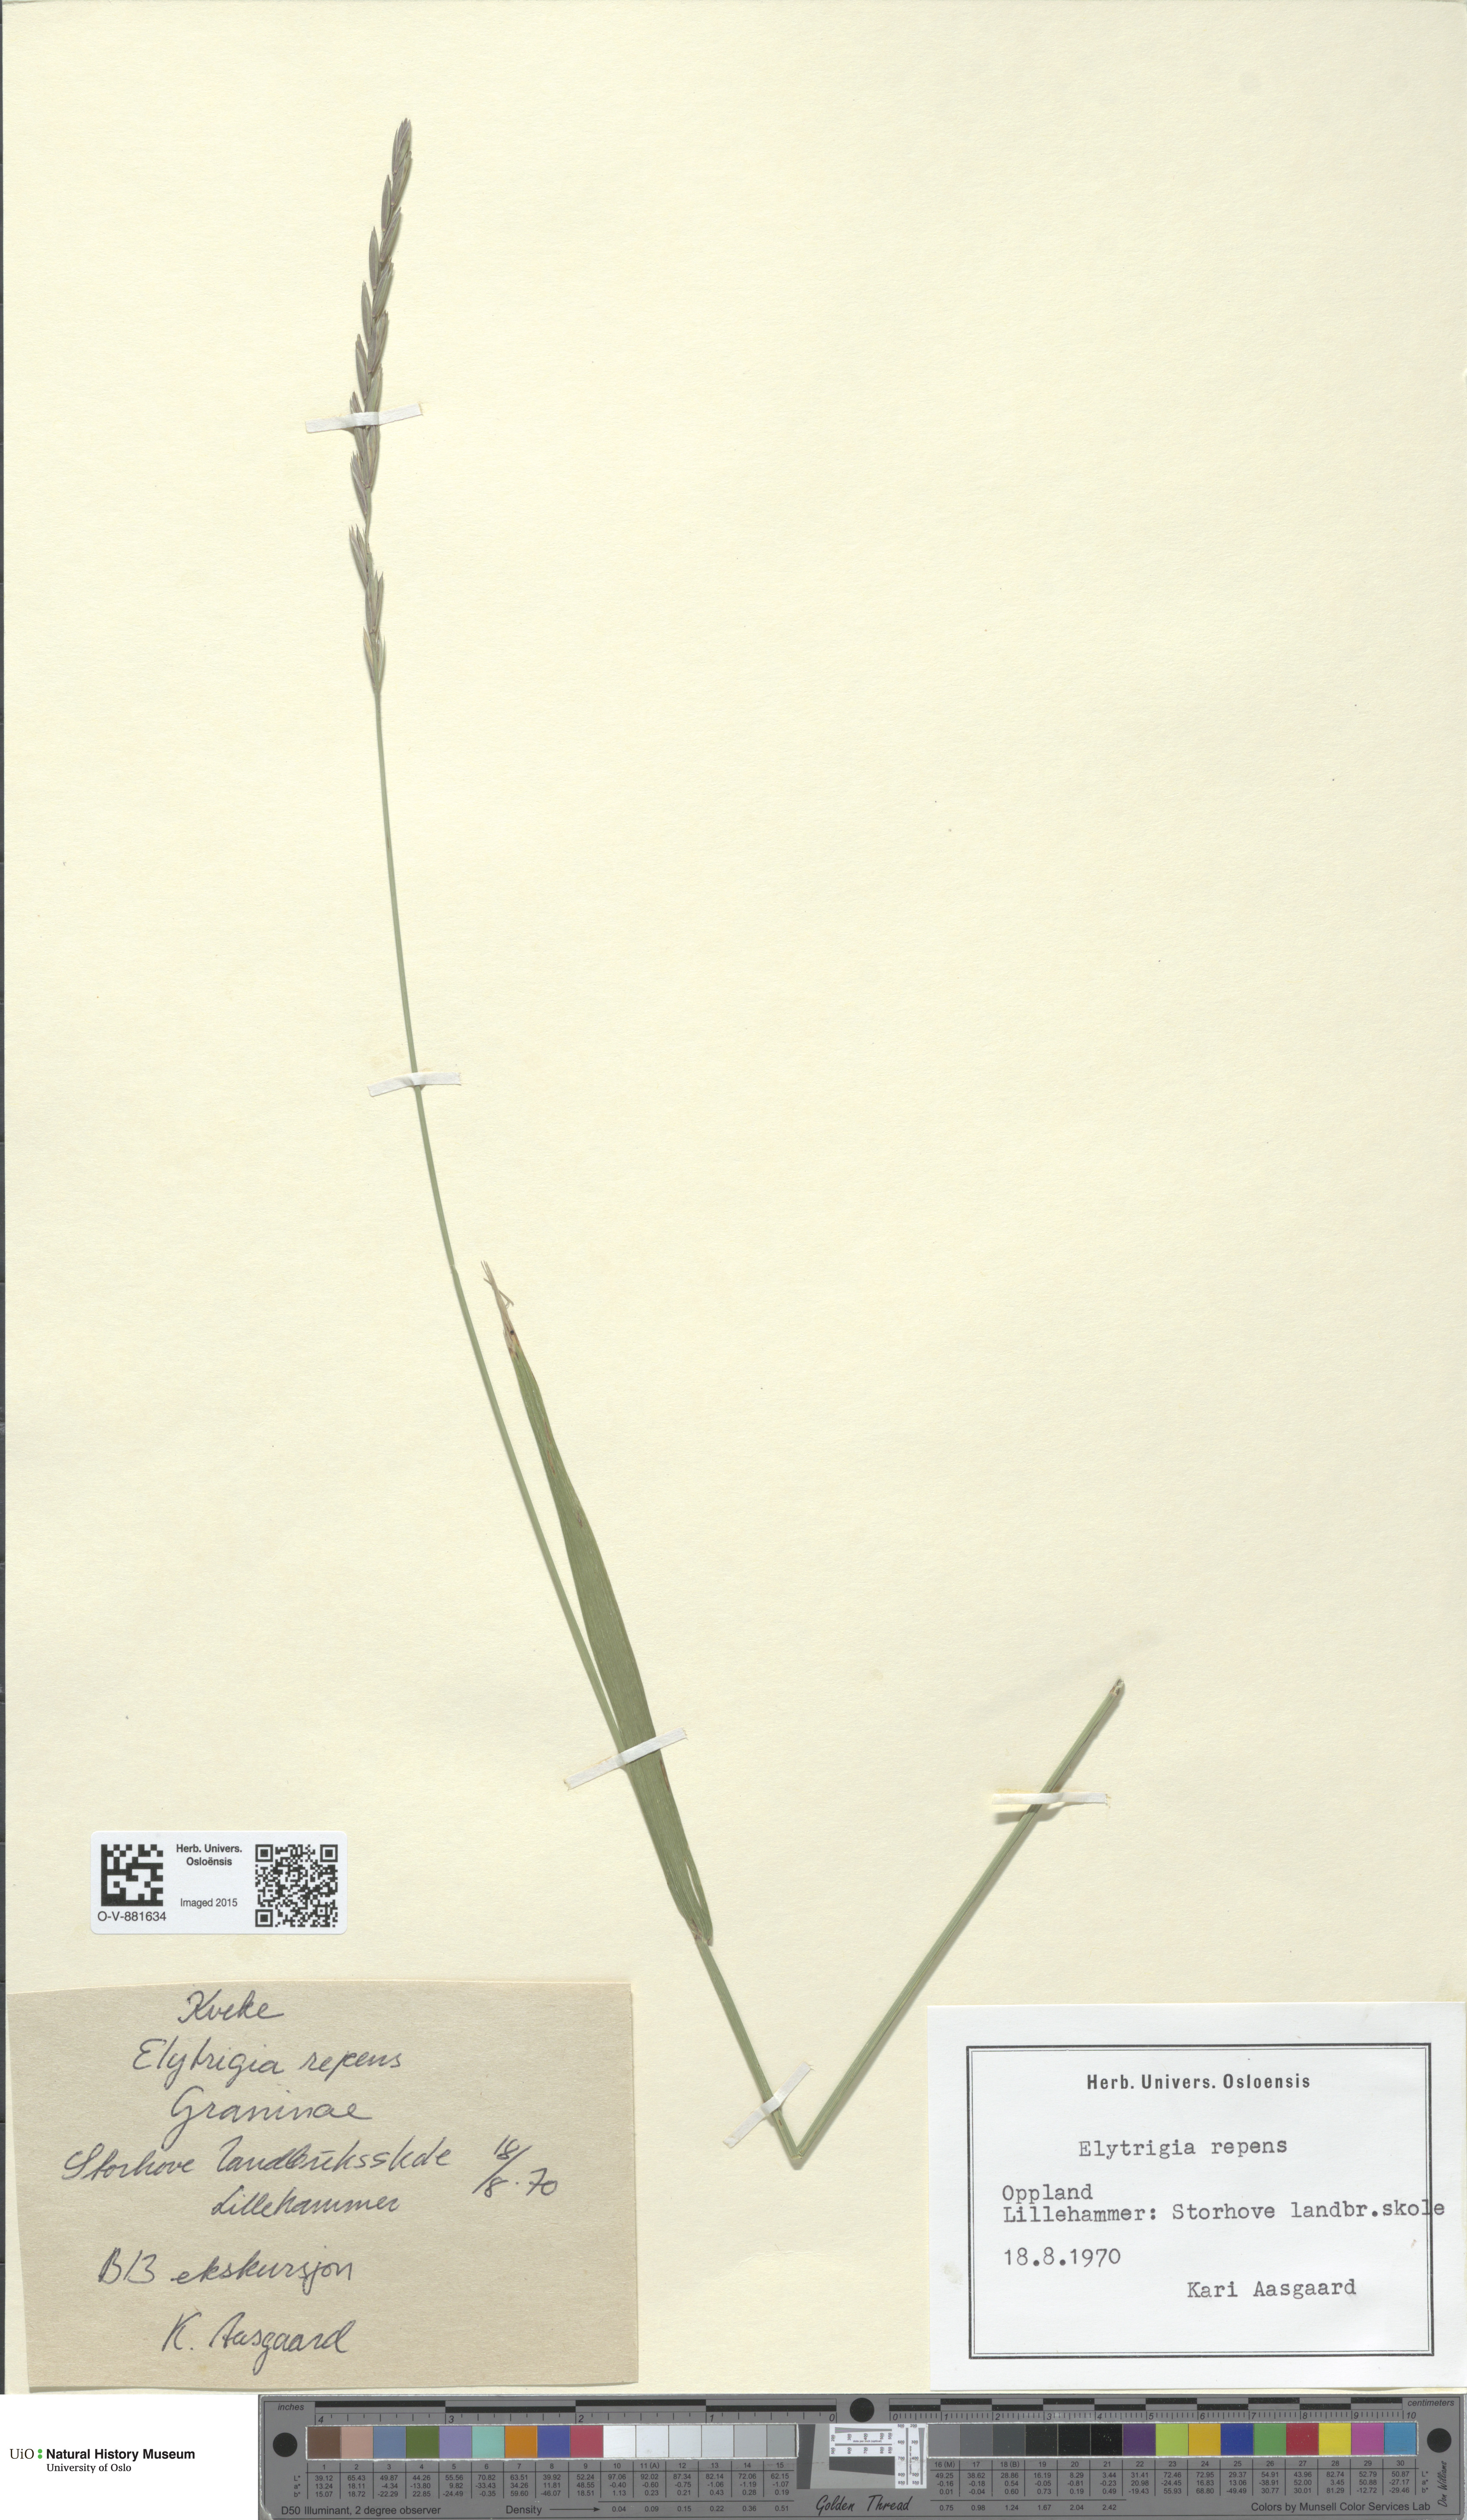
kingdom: Plantae
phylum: Tracheophyta
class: Liliopsida
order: Poales
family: Poaceae
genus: Elymus
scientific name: Elymus repens
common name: Quackgrass
